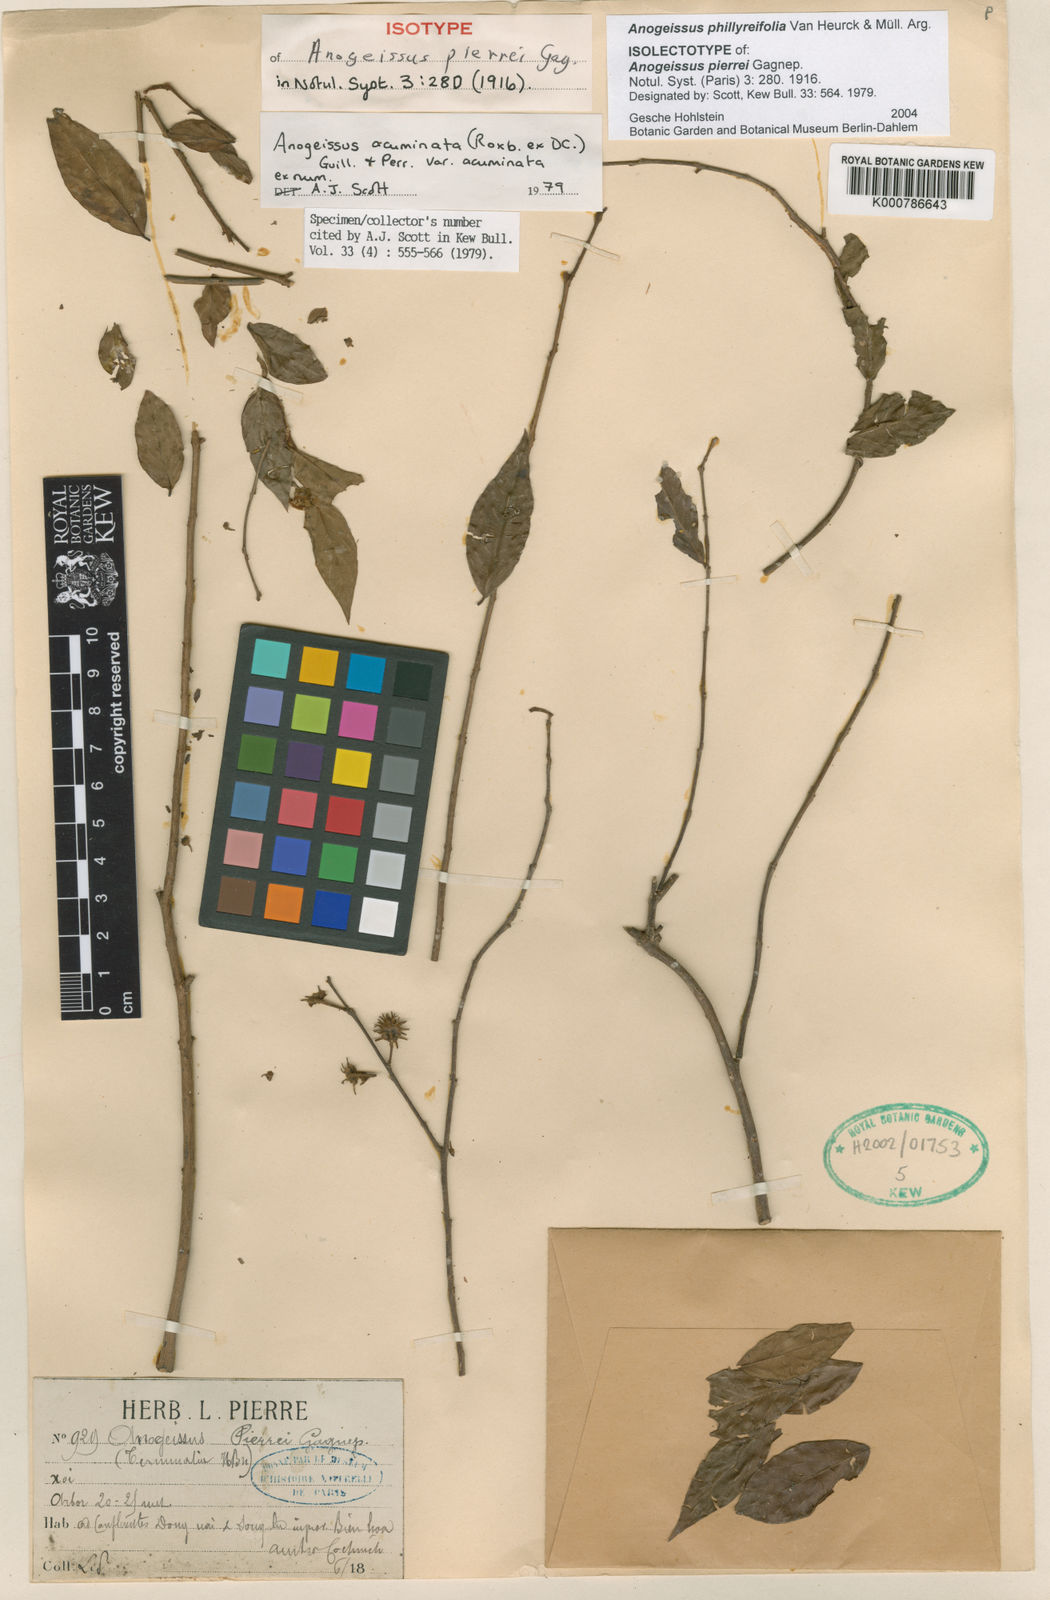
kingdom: Plantae
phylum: Tracheophyta
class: Magnoliopsida
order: Myrtales
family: Combretaceae
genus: Anogeissus
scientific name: Anogeissus
